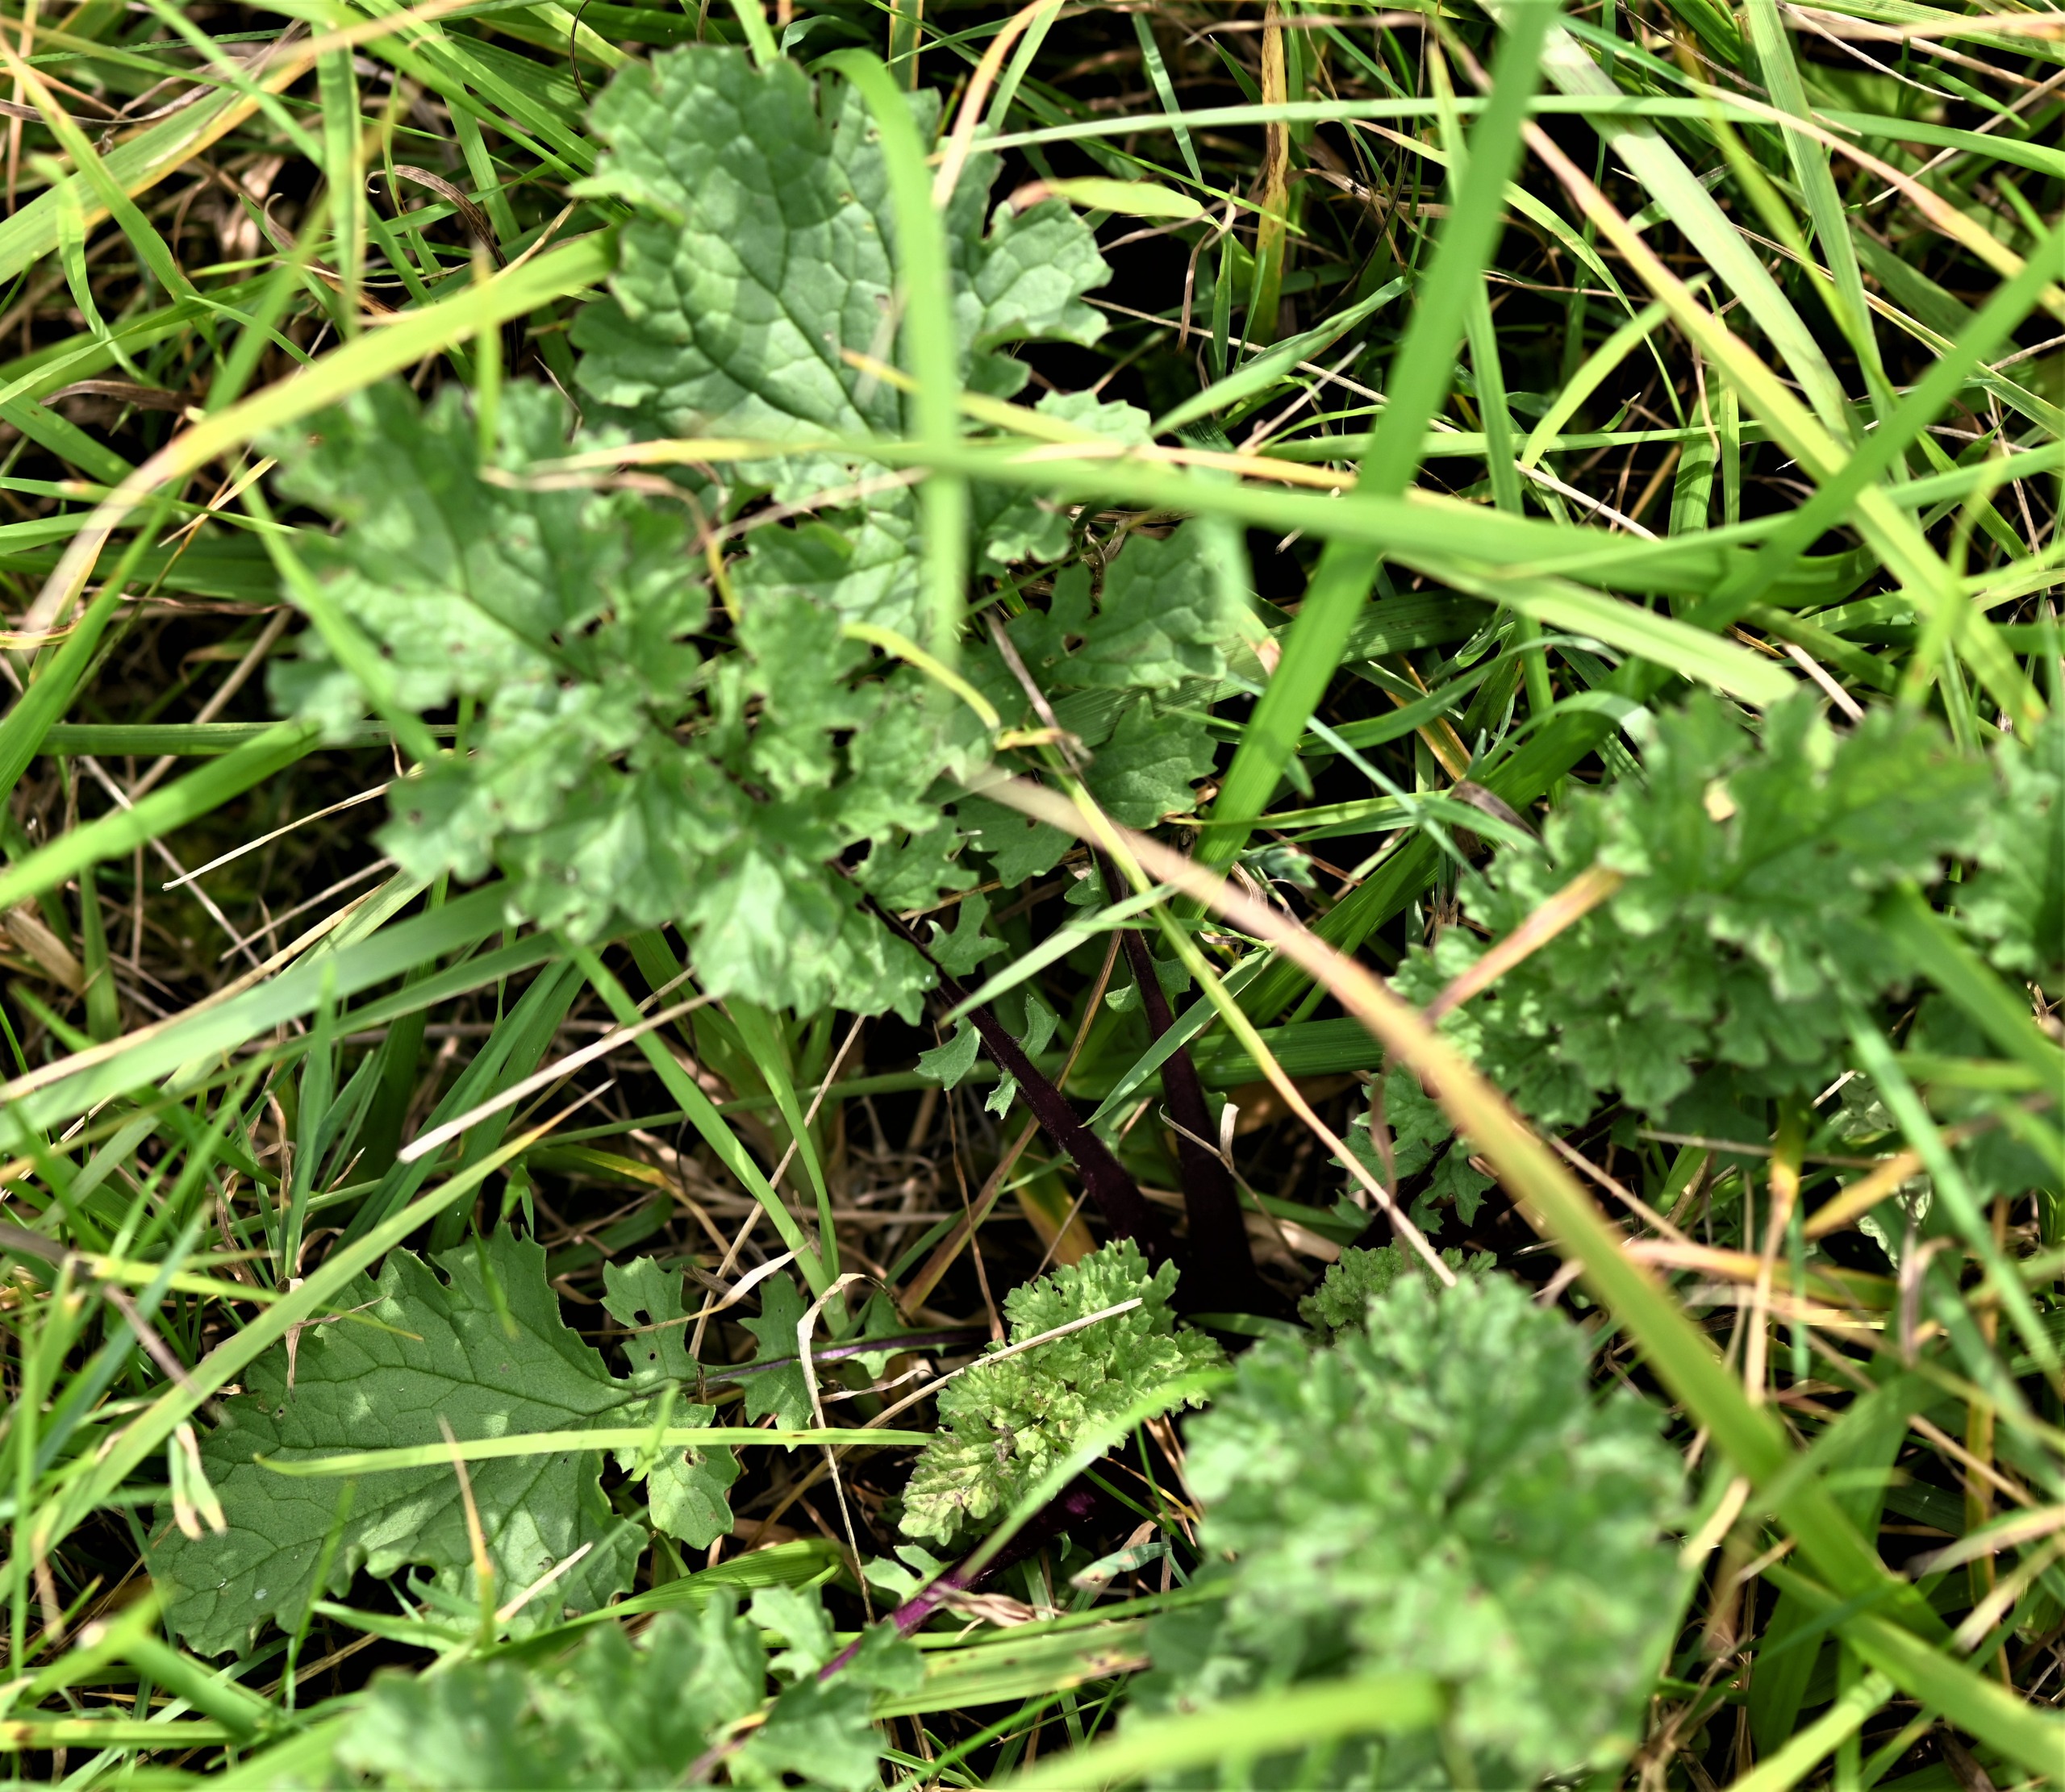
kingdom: Plantae
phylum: Tracheophyta
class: Magnoliopsida
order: Asterales
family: Asteraceae
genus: Jacobaea
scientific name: Jacobaea vulgaris
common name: Eng-brandbæger
